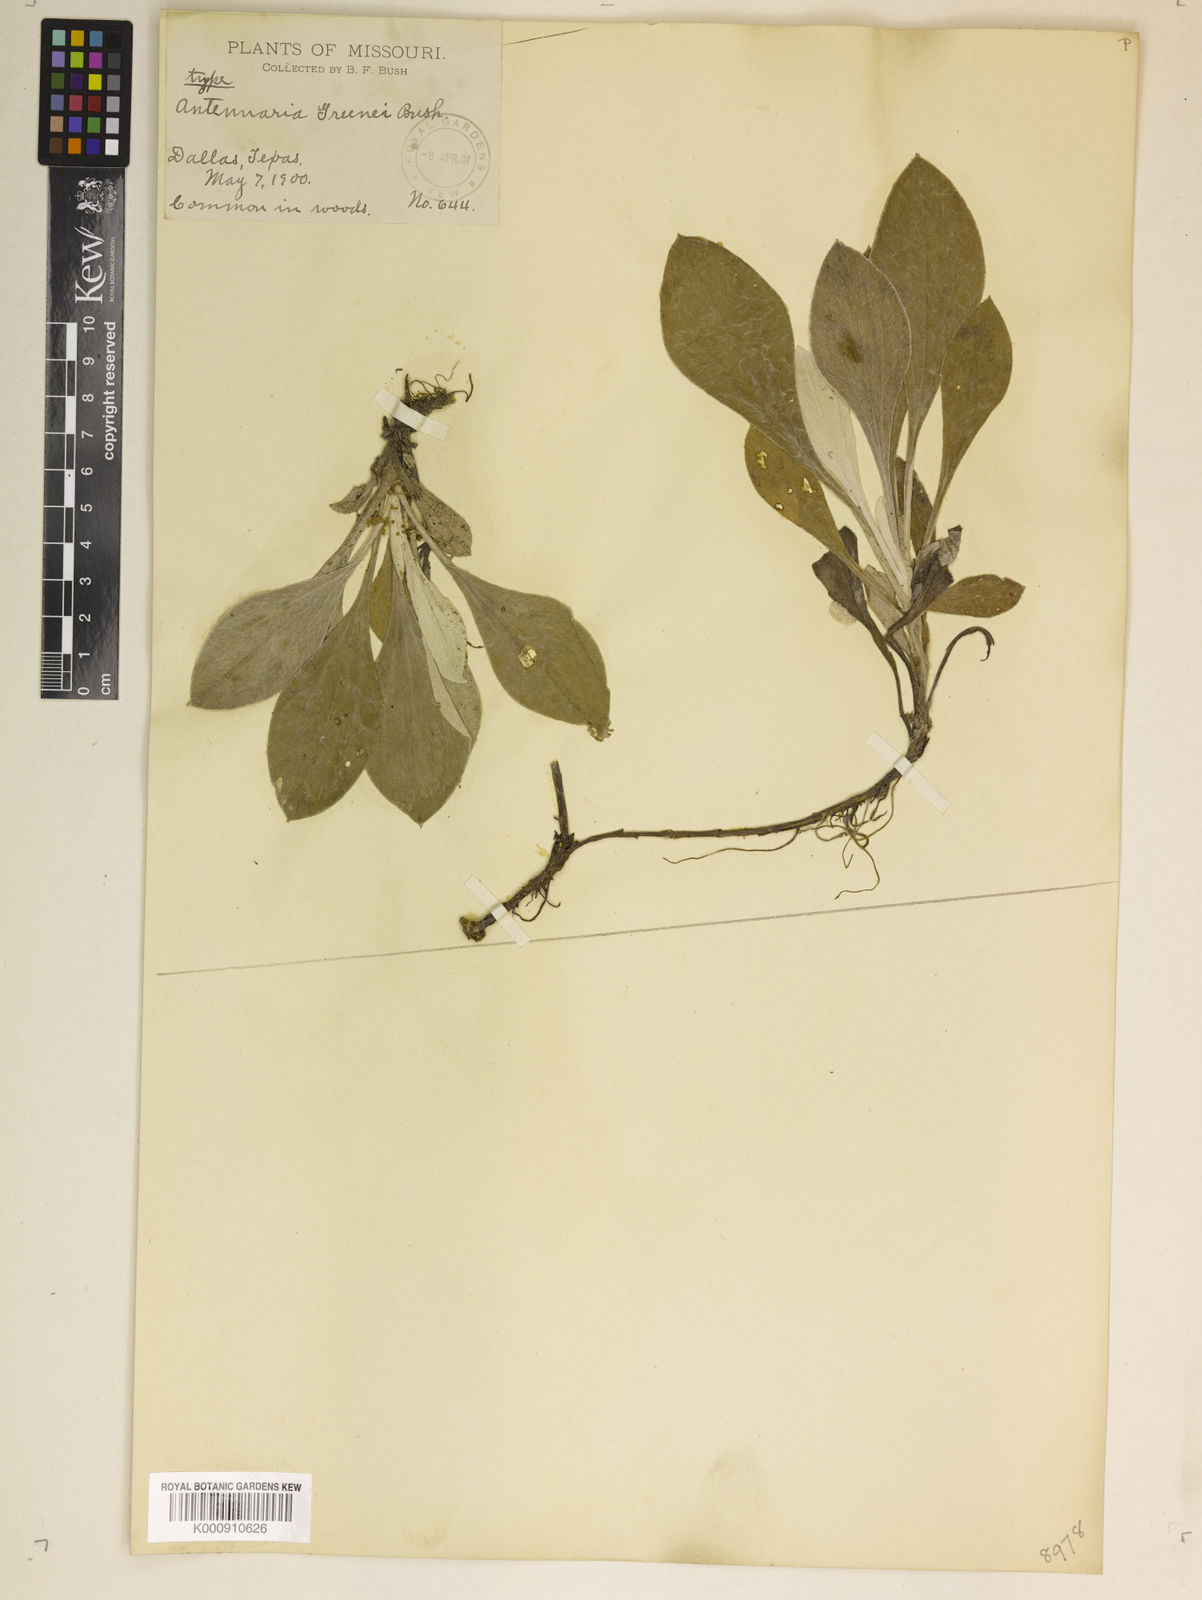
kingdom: Plantae
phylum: Tracheophyta
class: Magnoliopsida
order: Asterales
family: Asteraceae
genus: Antennaria
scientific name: Antennaria parlinii
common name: Parlin's pussytoes
